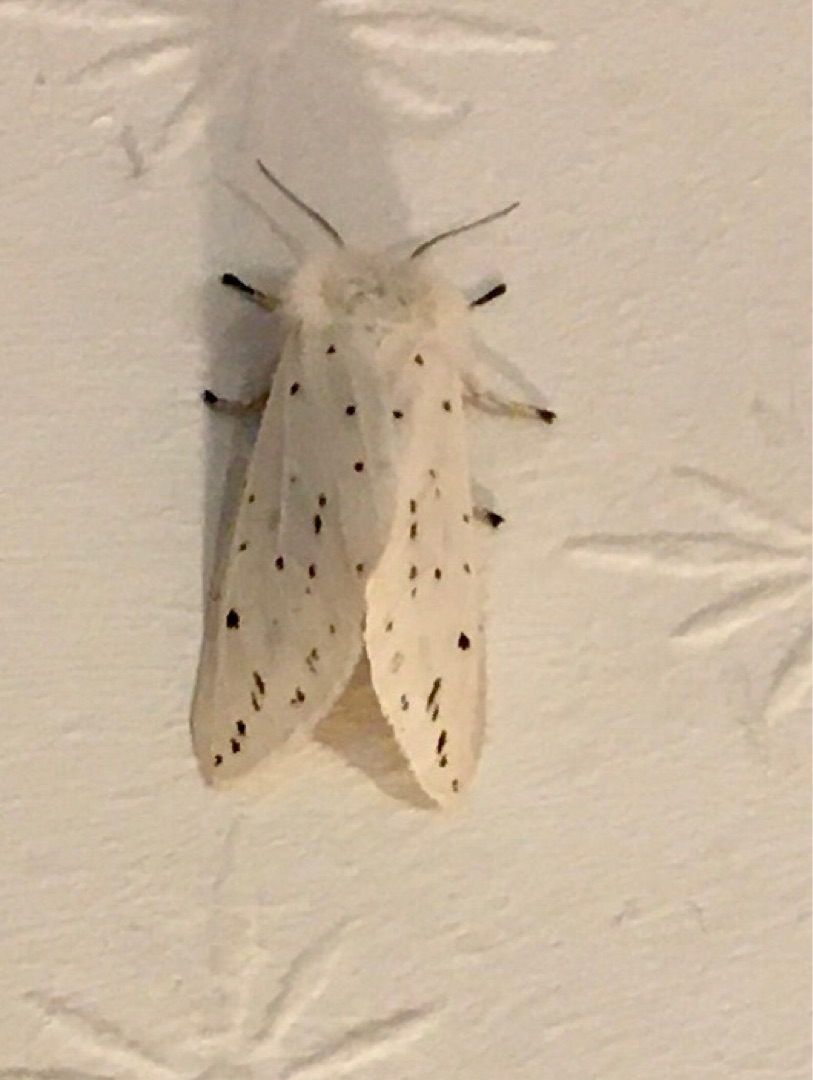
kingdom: Animalia
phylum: Arthropoda
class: Insecta
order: Lepidoptera
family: Erebidae
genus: Spilosoma
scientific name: Spilosoma lubricipeda
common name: Almindelig tigerspinder
